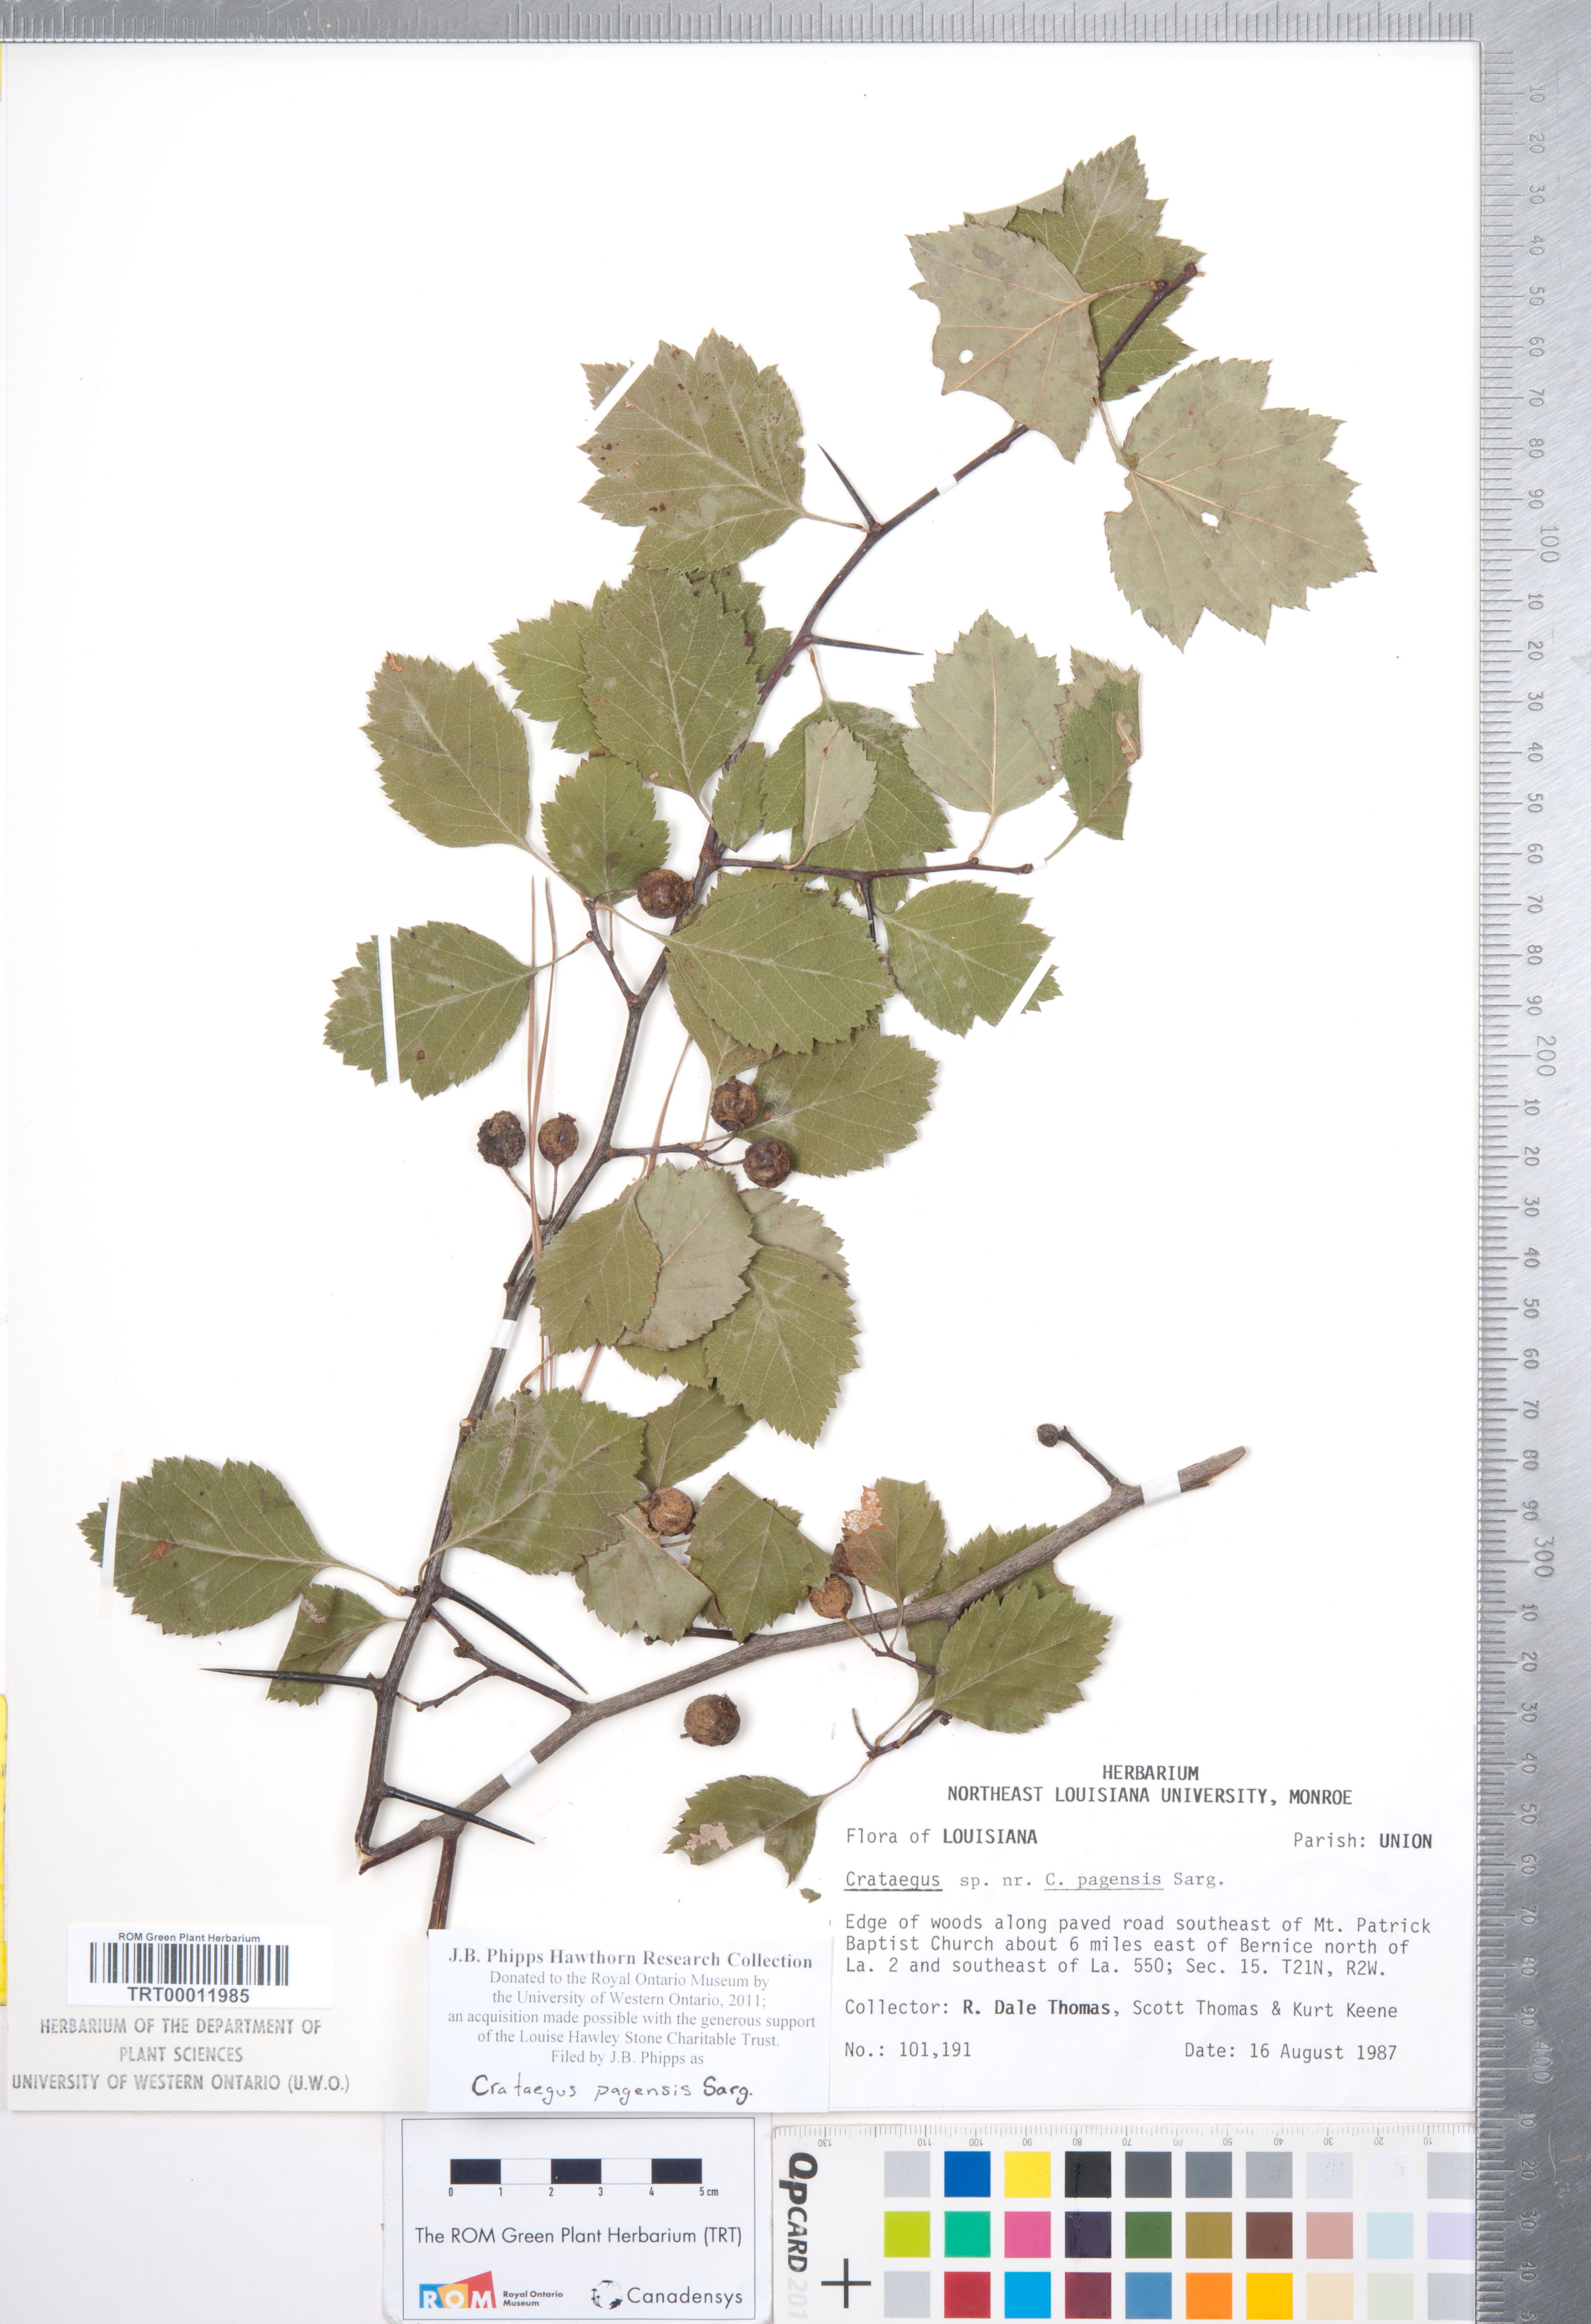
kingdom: Plantae
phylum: Tracheophyta
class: Magnoliopsida
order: Rosales
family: Rosaceae
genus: Crataegus
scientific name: Crataegus neobushii
